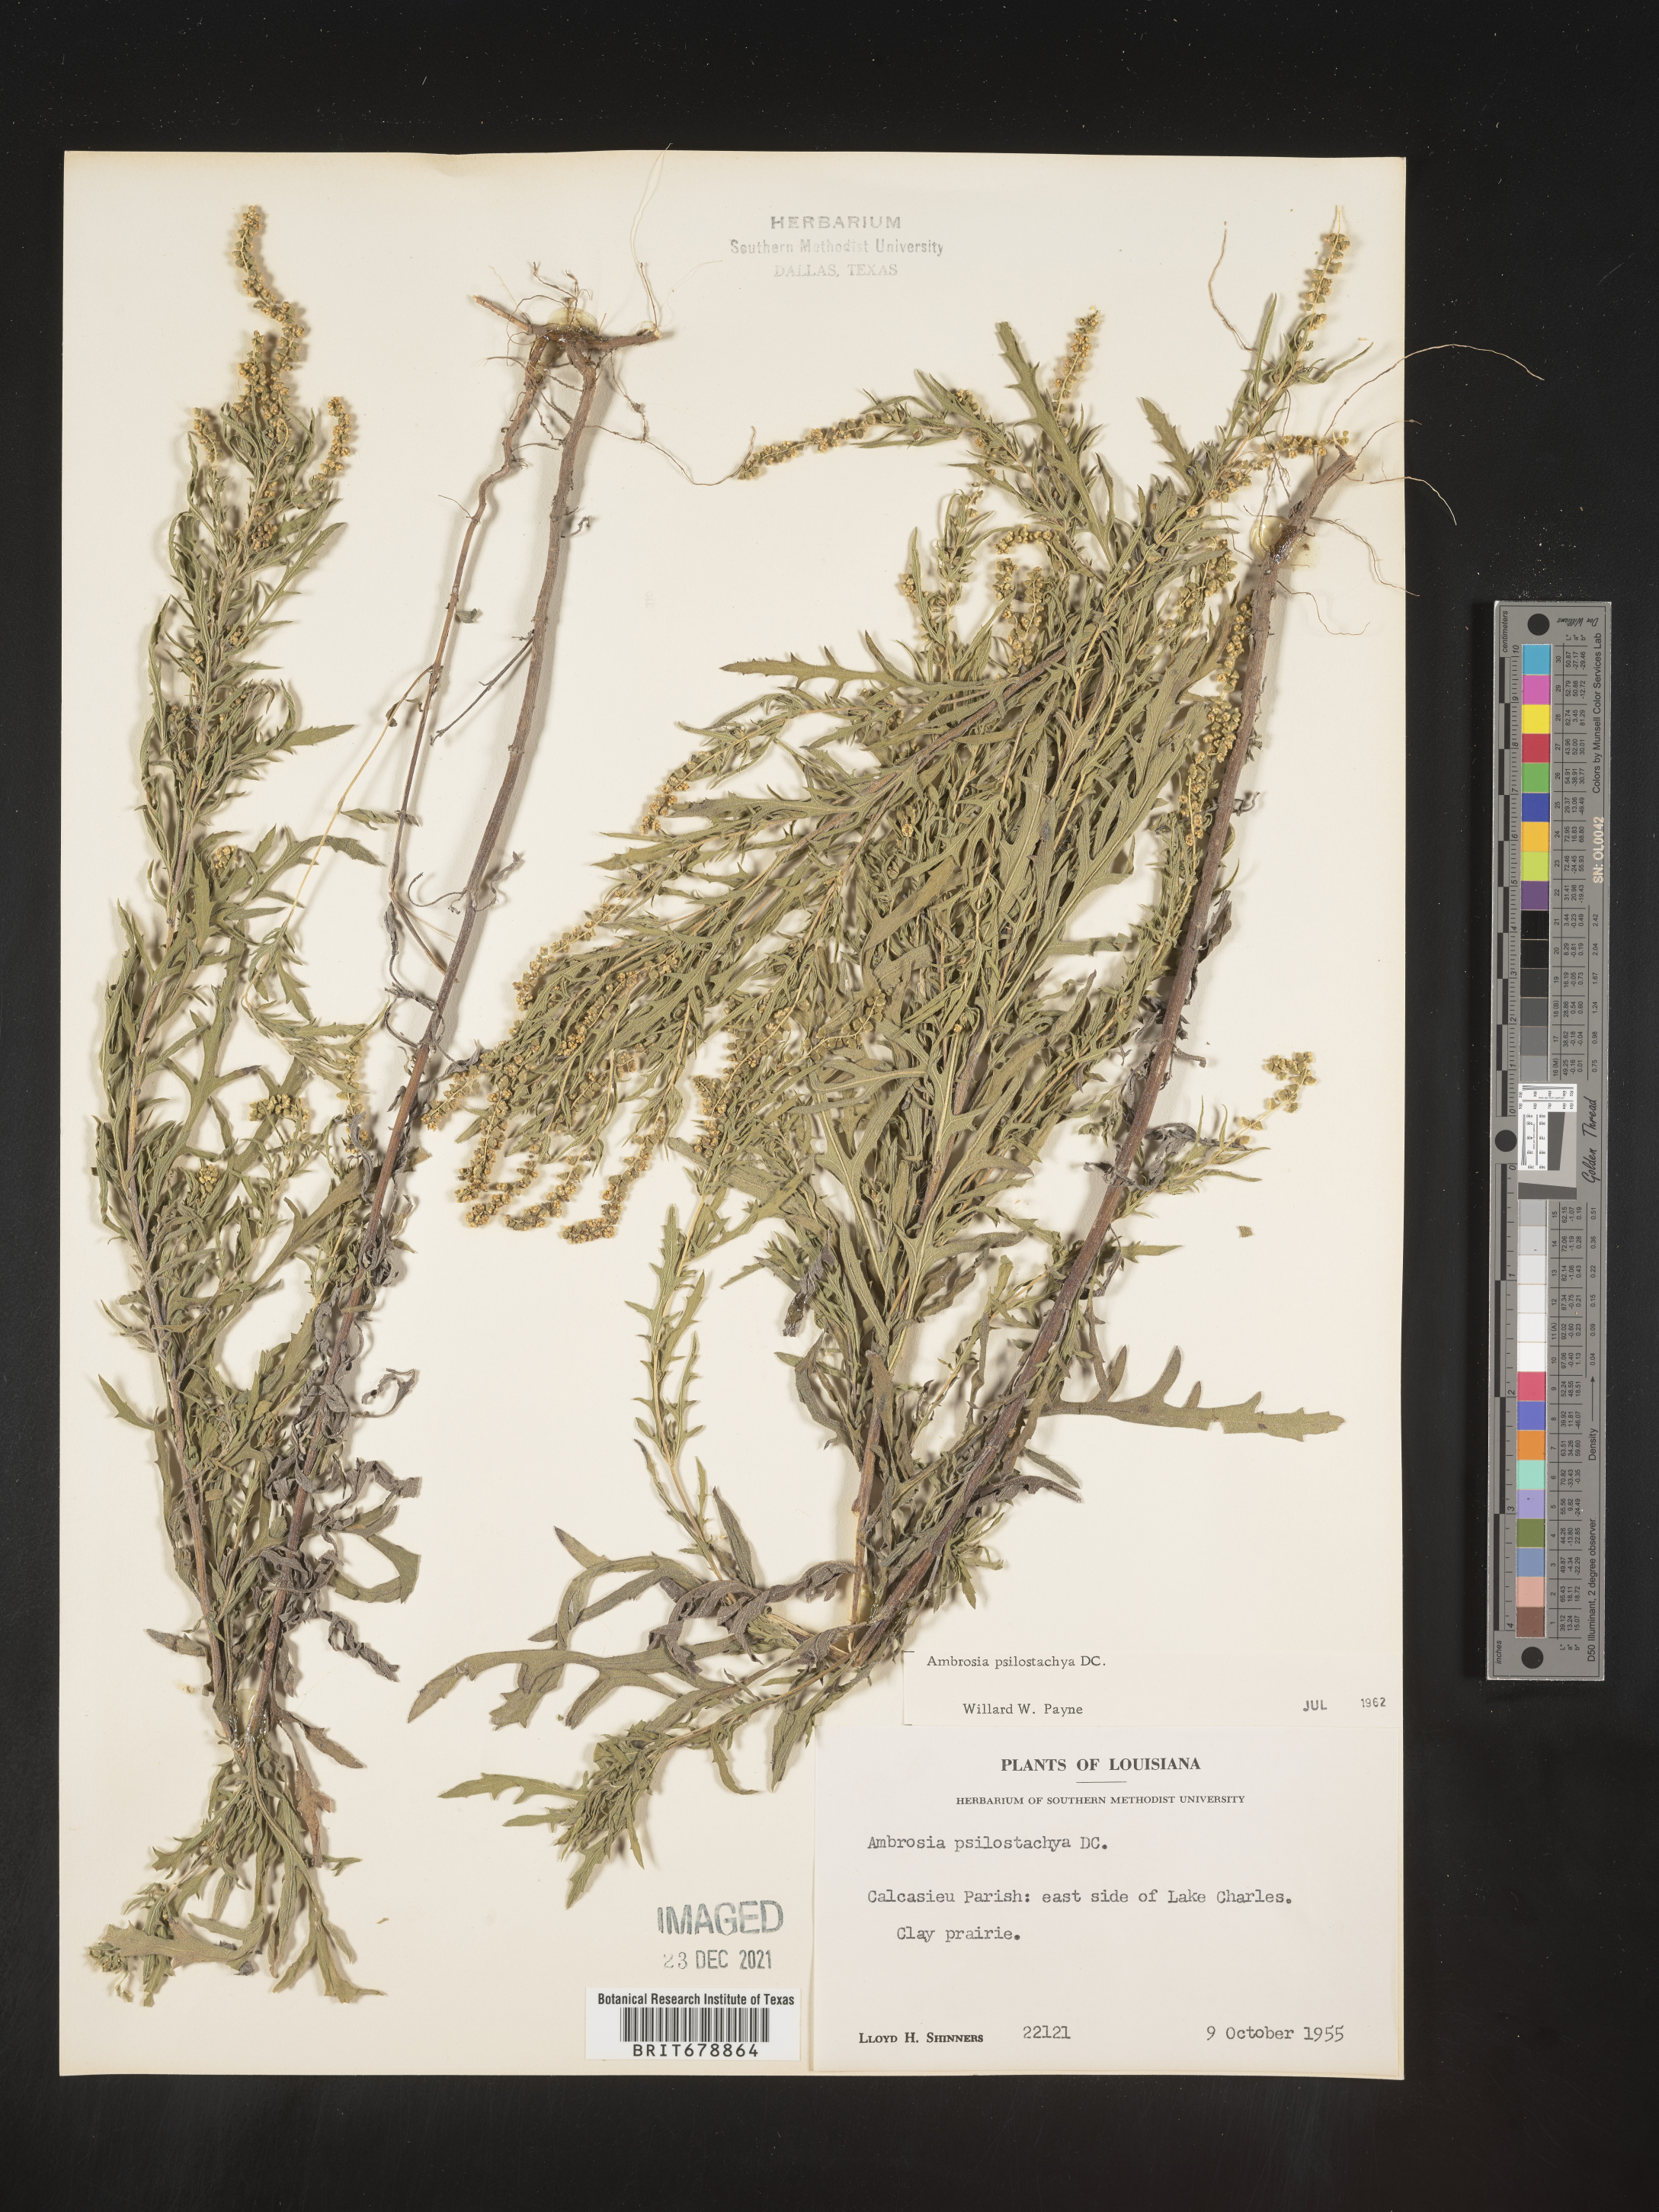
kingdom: Plantae
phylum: Tracheophyta
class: Magnoliopsida
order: Asterales
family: Asteraceae
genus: Ambrosia
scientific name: Ambrosia psilostachya
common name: Perennial ragweed
